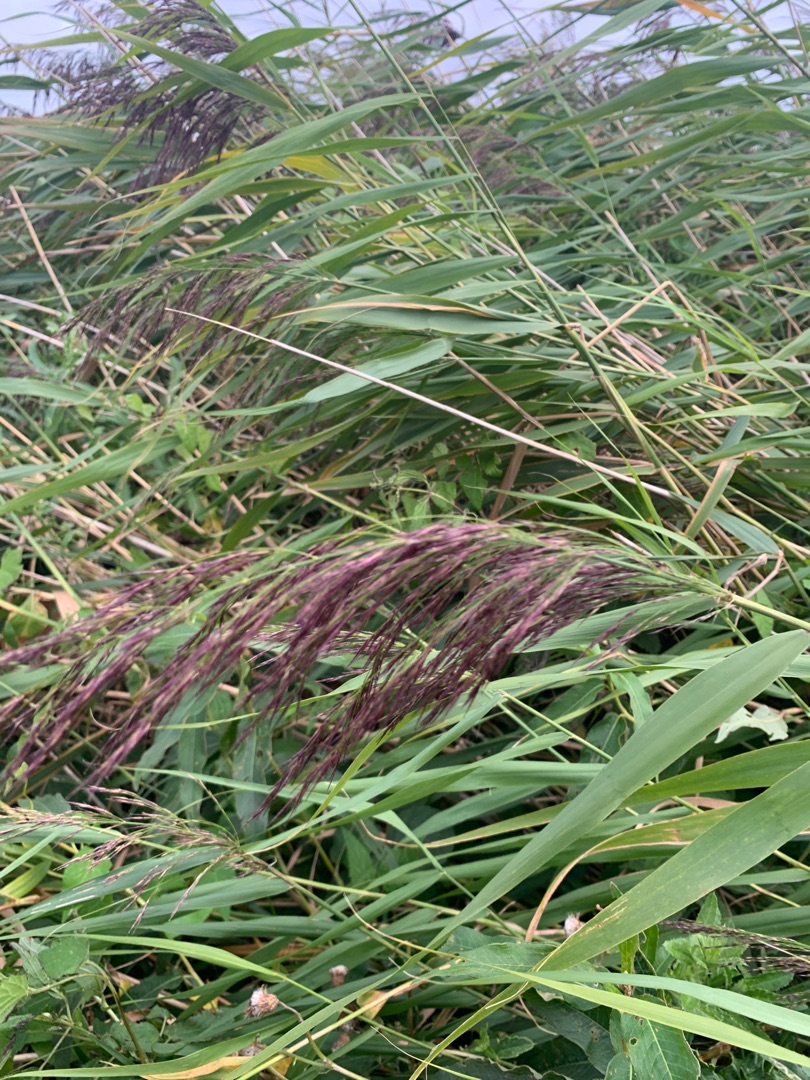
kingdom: Plantae
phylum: Tracheophyta
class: Liliopsida
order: Poales
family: Poaceae
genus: Phragmites
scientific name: Phragmites australis
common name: Tagrør
